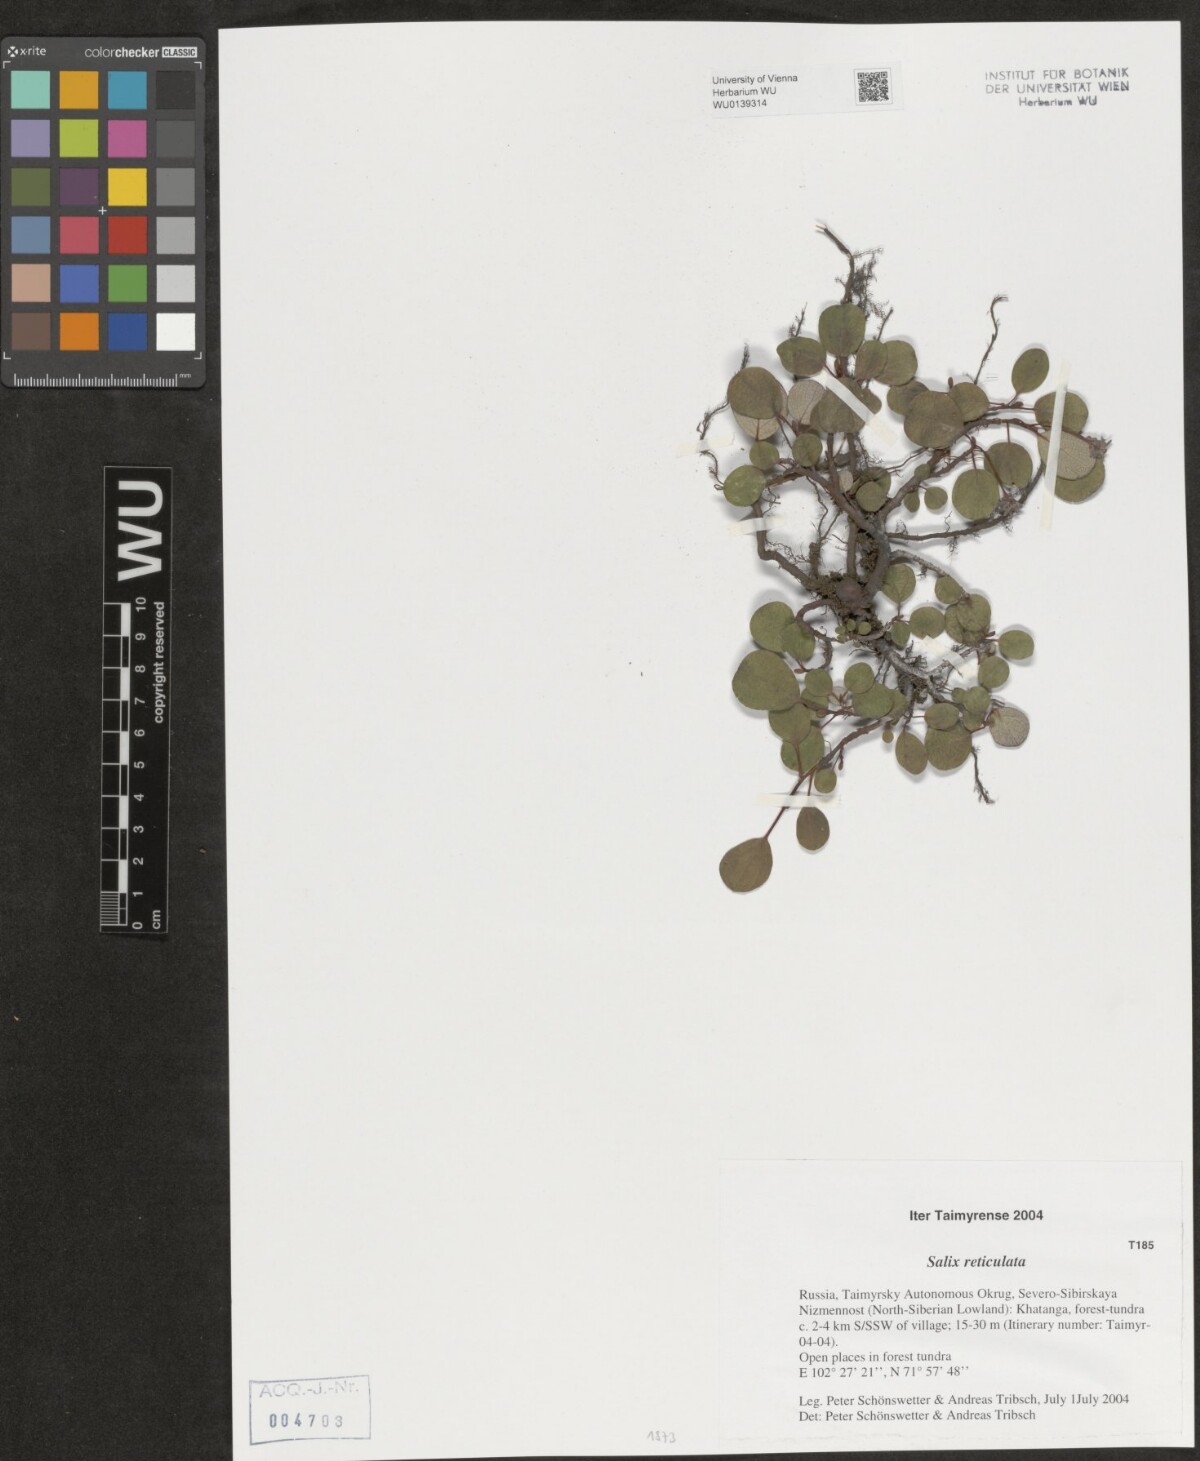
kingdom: Plantae
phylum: Tracheophyta
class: Magnoliopsida
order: Malpighiales
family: Salicaceae
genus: Salix
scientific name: Salix reticulata
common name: Net-leaved willow
